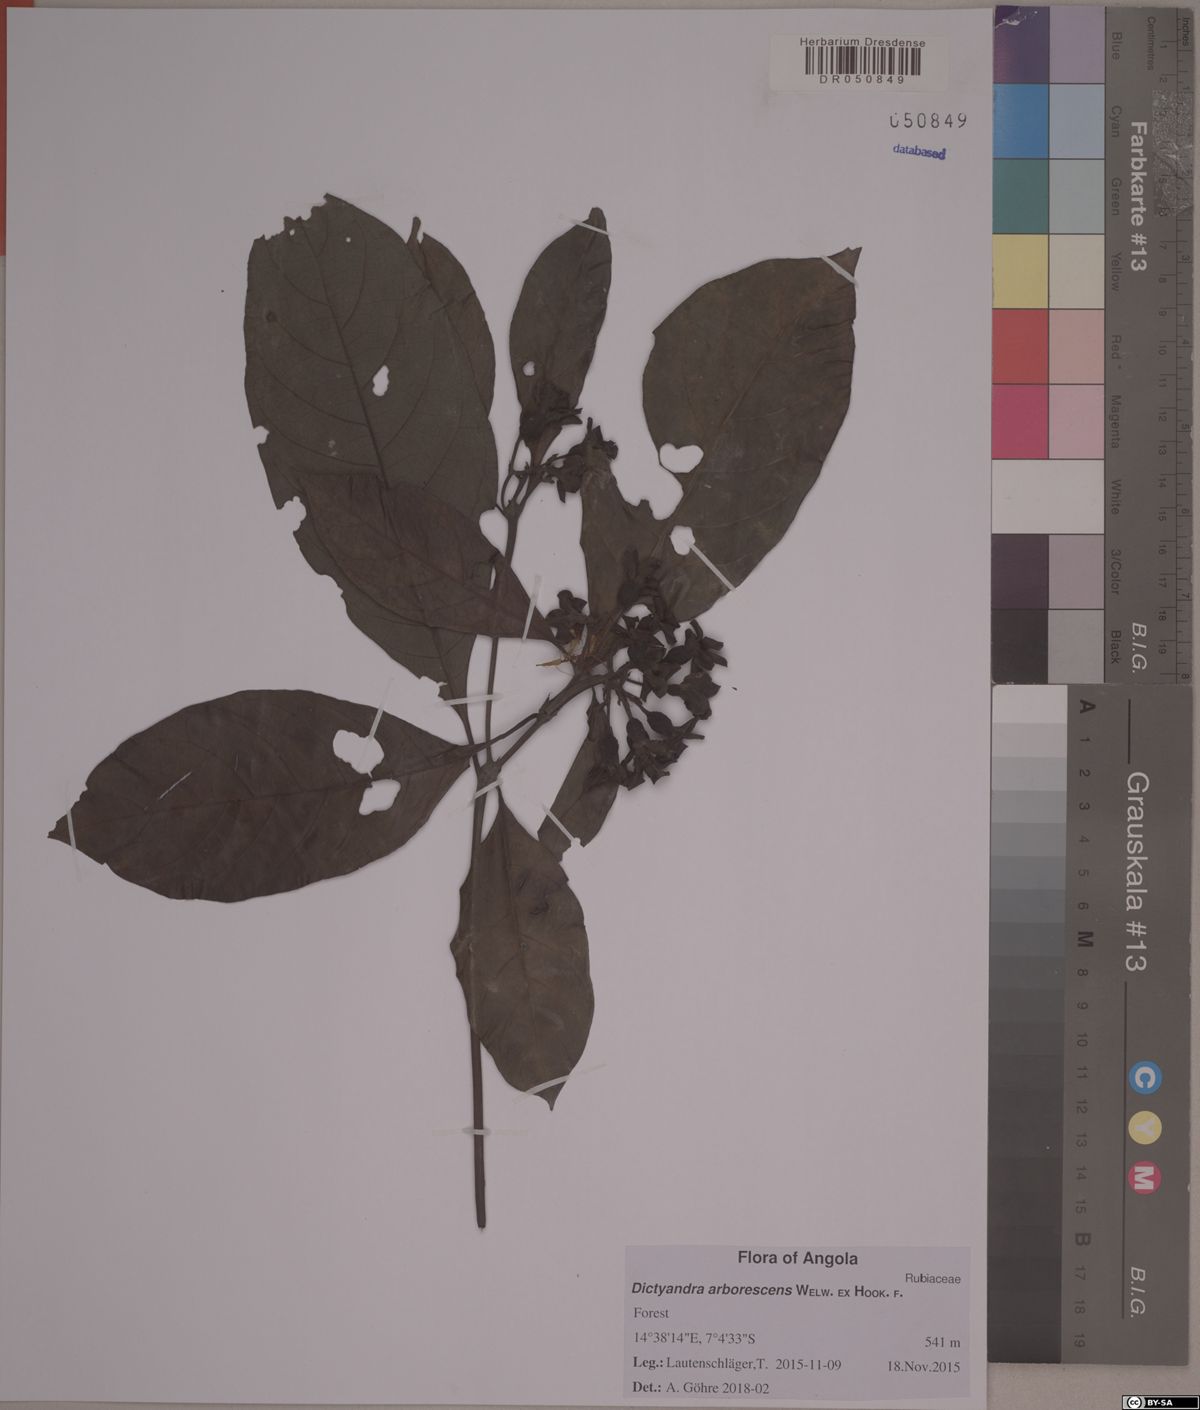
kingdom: Plantae
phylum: Tracheophyta
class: Magnoliopsida
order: Gentianales
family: Rubiaceae
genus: Leptactina
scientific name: Leptactina arborescens
